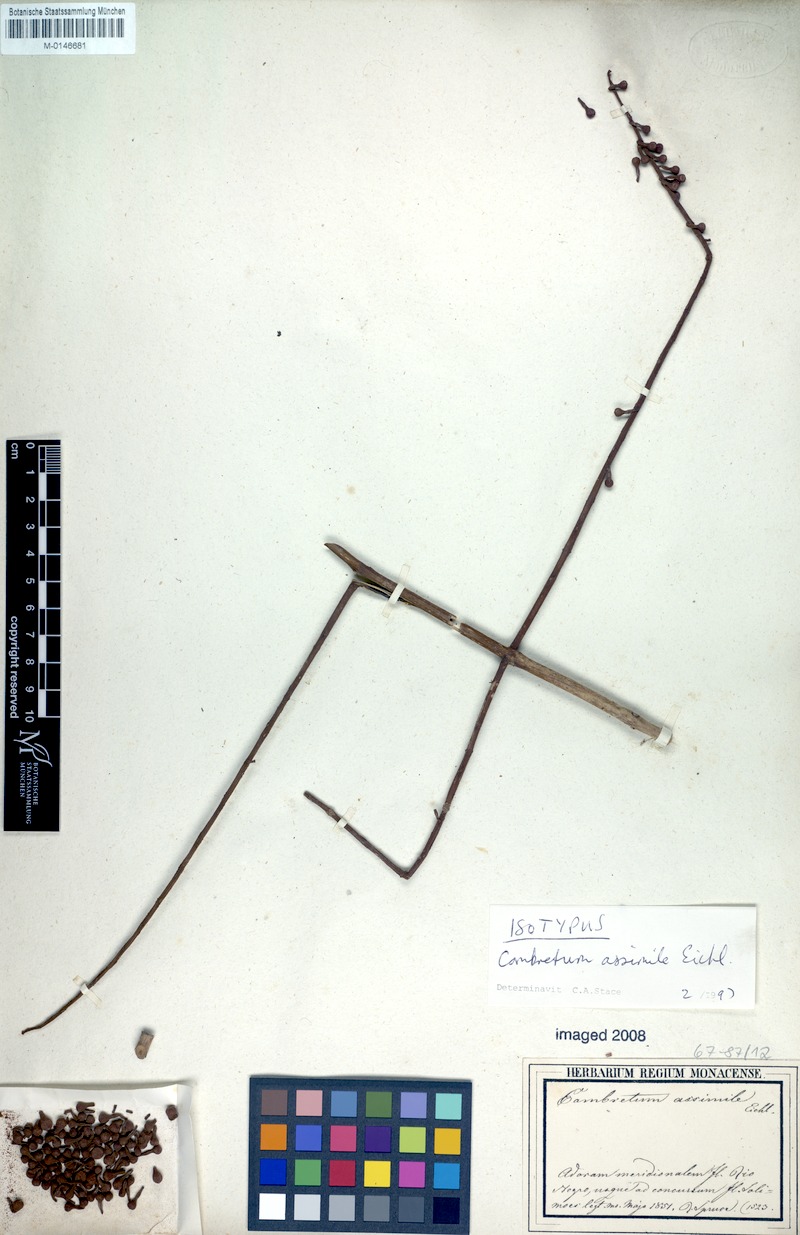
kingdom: Plantae
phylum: Tracheophyta
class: Magnoliopsida
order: Myrtales
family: Combretaceae
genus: Combretum
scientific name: Combretum assimile
